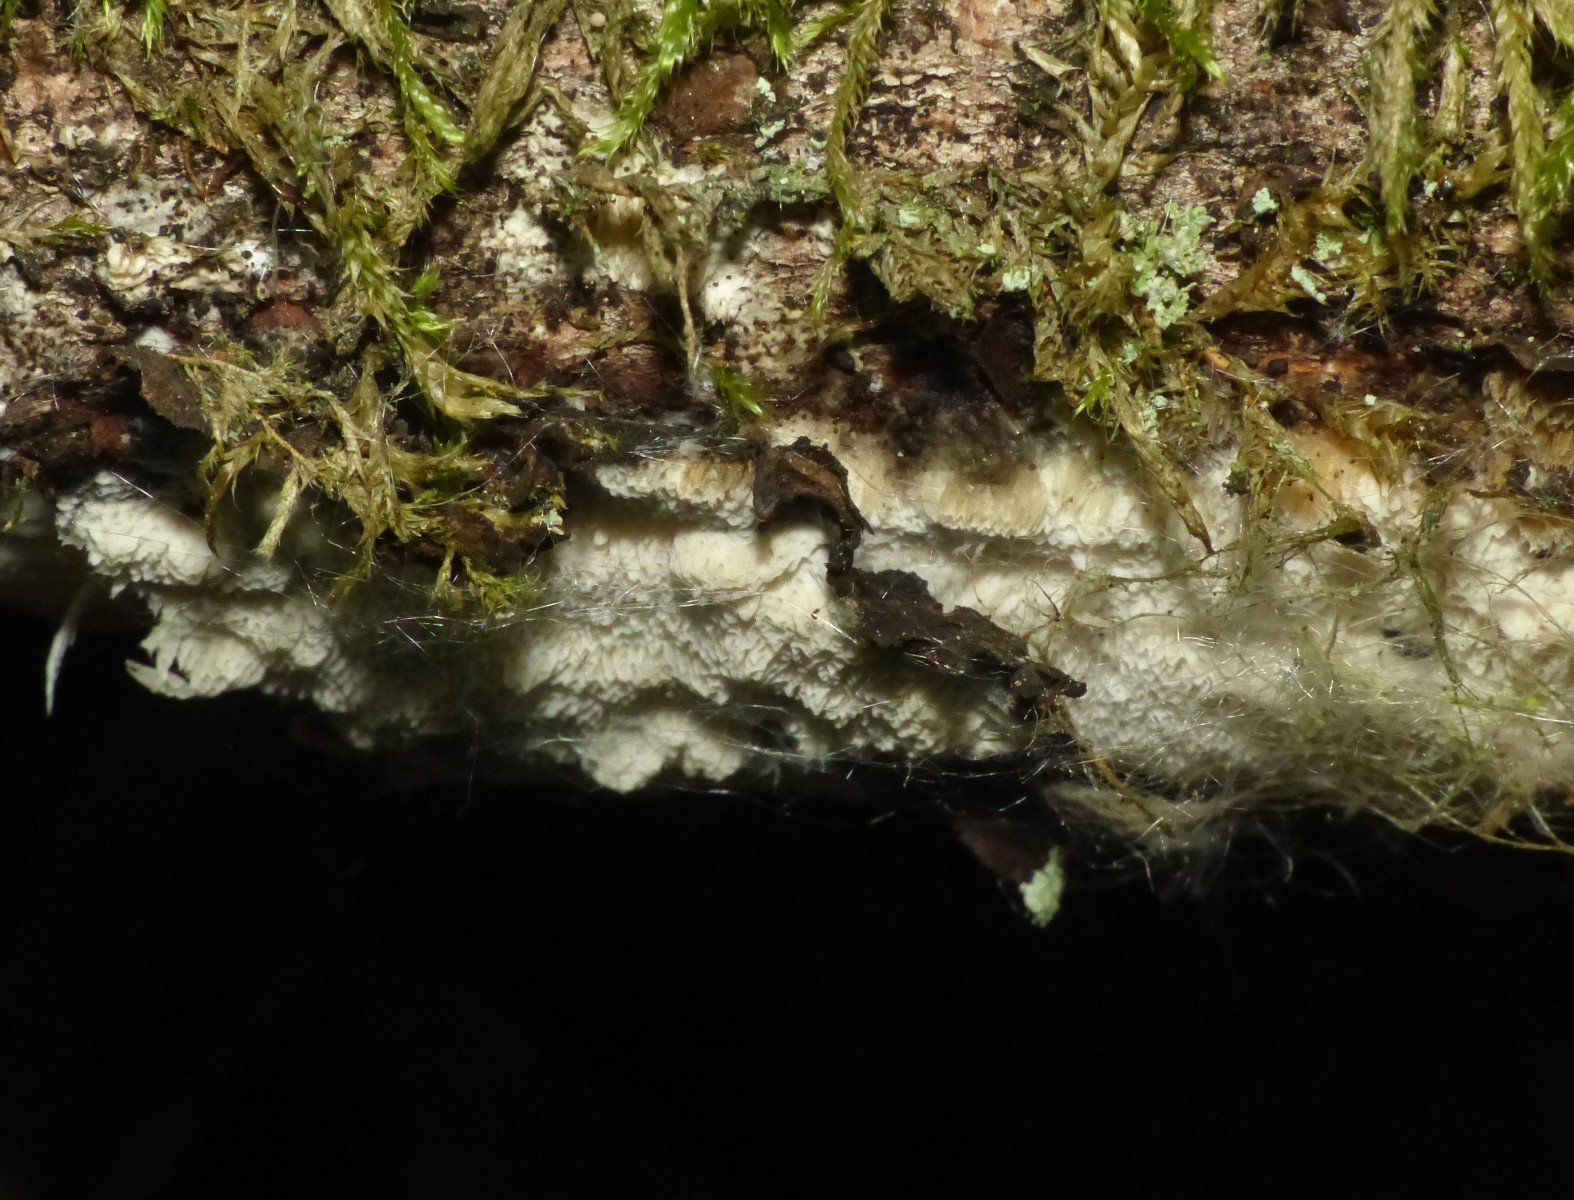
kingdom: Fungi
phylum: Basidiomycota
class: Agaricomycetes
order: Polyporales
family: Steccherinaceae
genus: Antella
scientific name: Antella niemelaei
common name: grovporet elastikporesvamp
